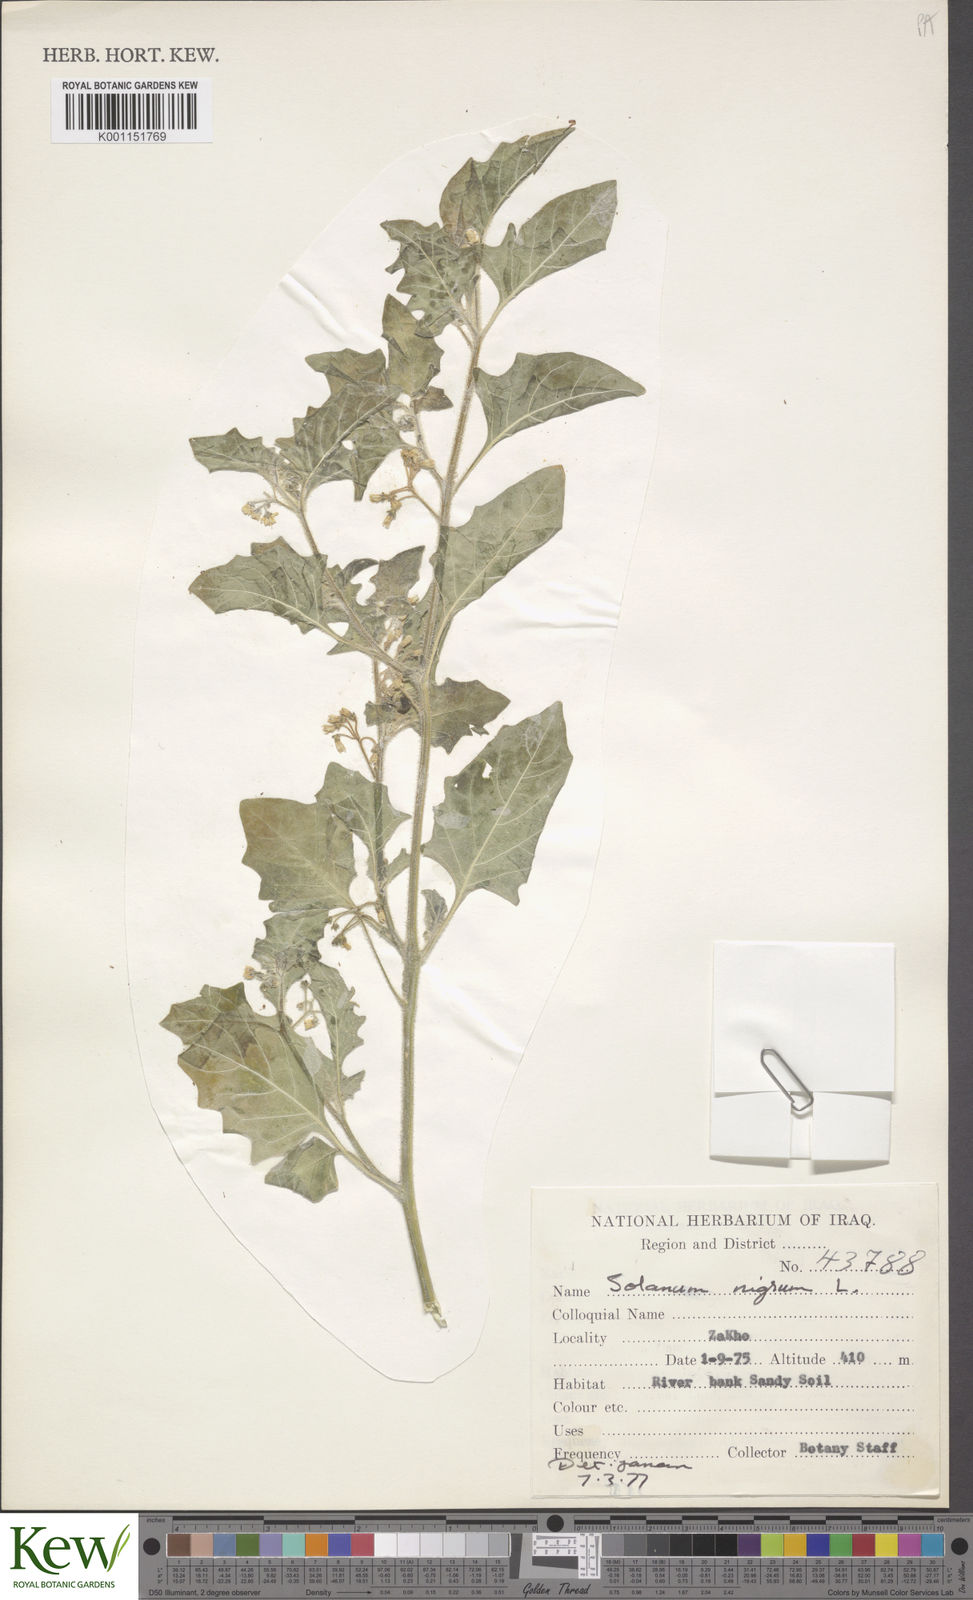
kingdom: Plantae
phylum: Tracheophyta
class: Magnoliopsida
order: Solanales
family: Solanaceae
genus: Solanum
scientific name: Solanum villosum
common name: Red nightshade
